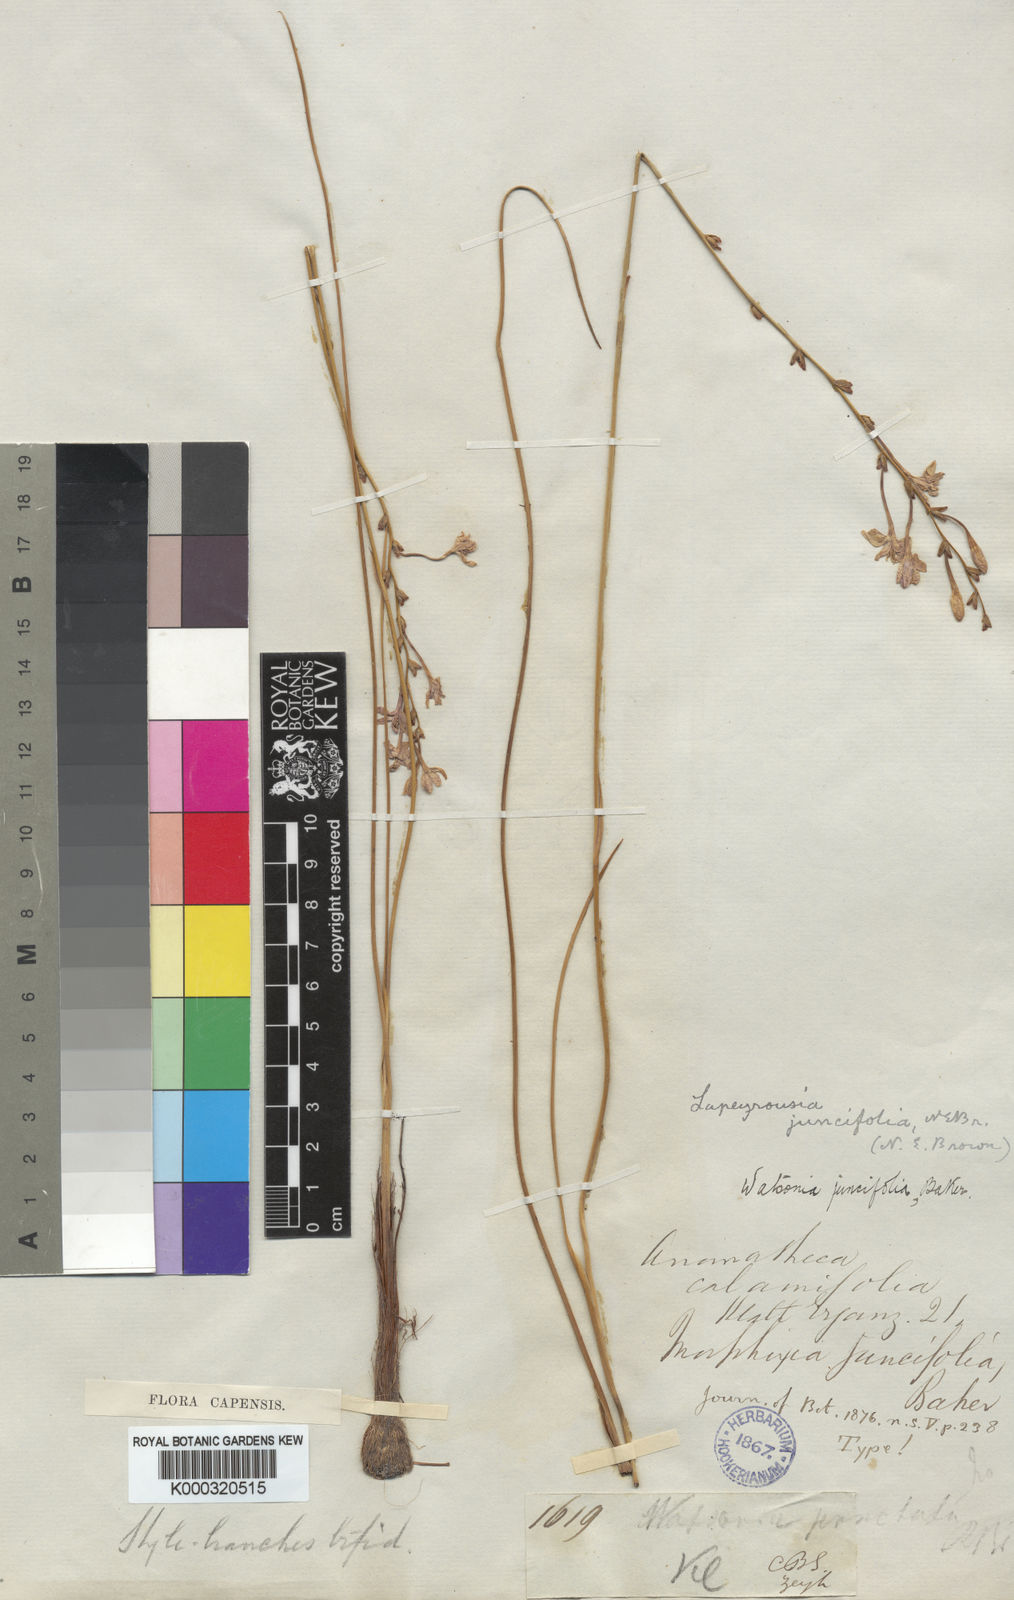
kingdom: Plantae
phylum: Tracheophyta
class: Liliopsida
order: Asparagales
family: Iridaceae
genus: Thereianthus
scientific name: Thereianthus juncifolius
